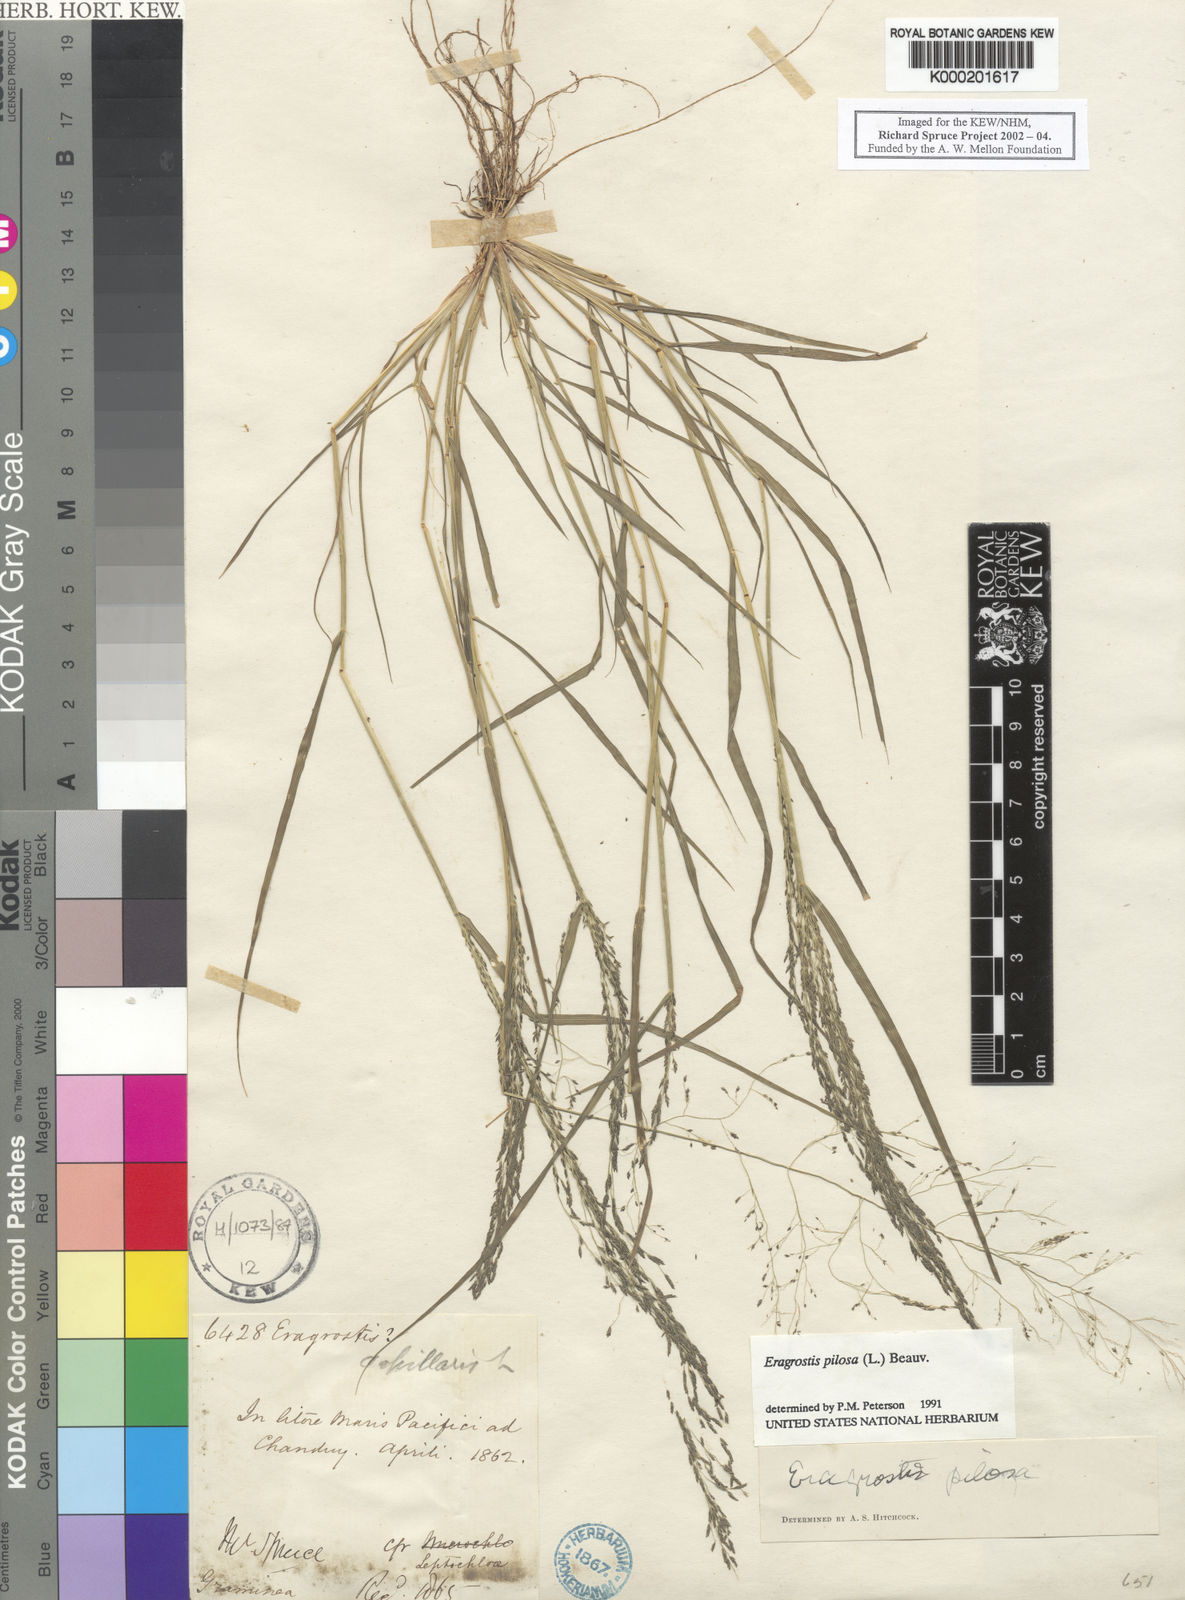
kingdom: Plantae
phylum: Tracheophyta
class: Liliopsida
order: Poales
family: Poaceae
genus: Eragrostis
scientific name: Eragrostis pilosa
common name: Indian lovegrass
